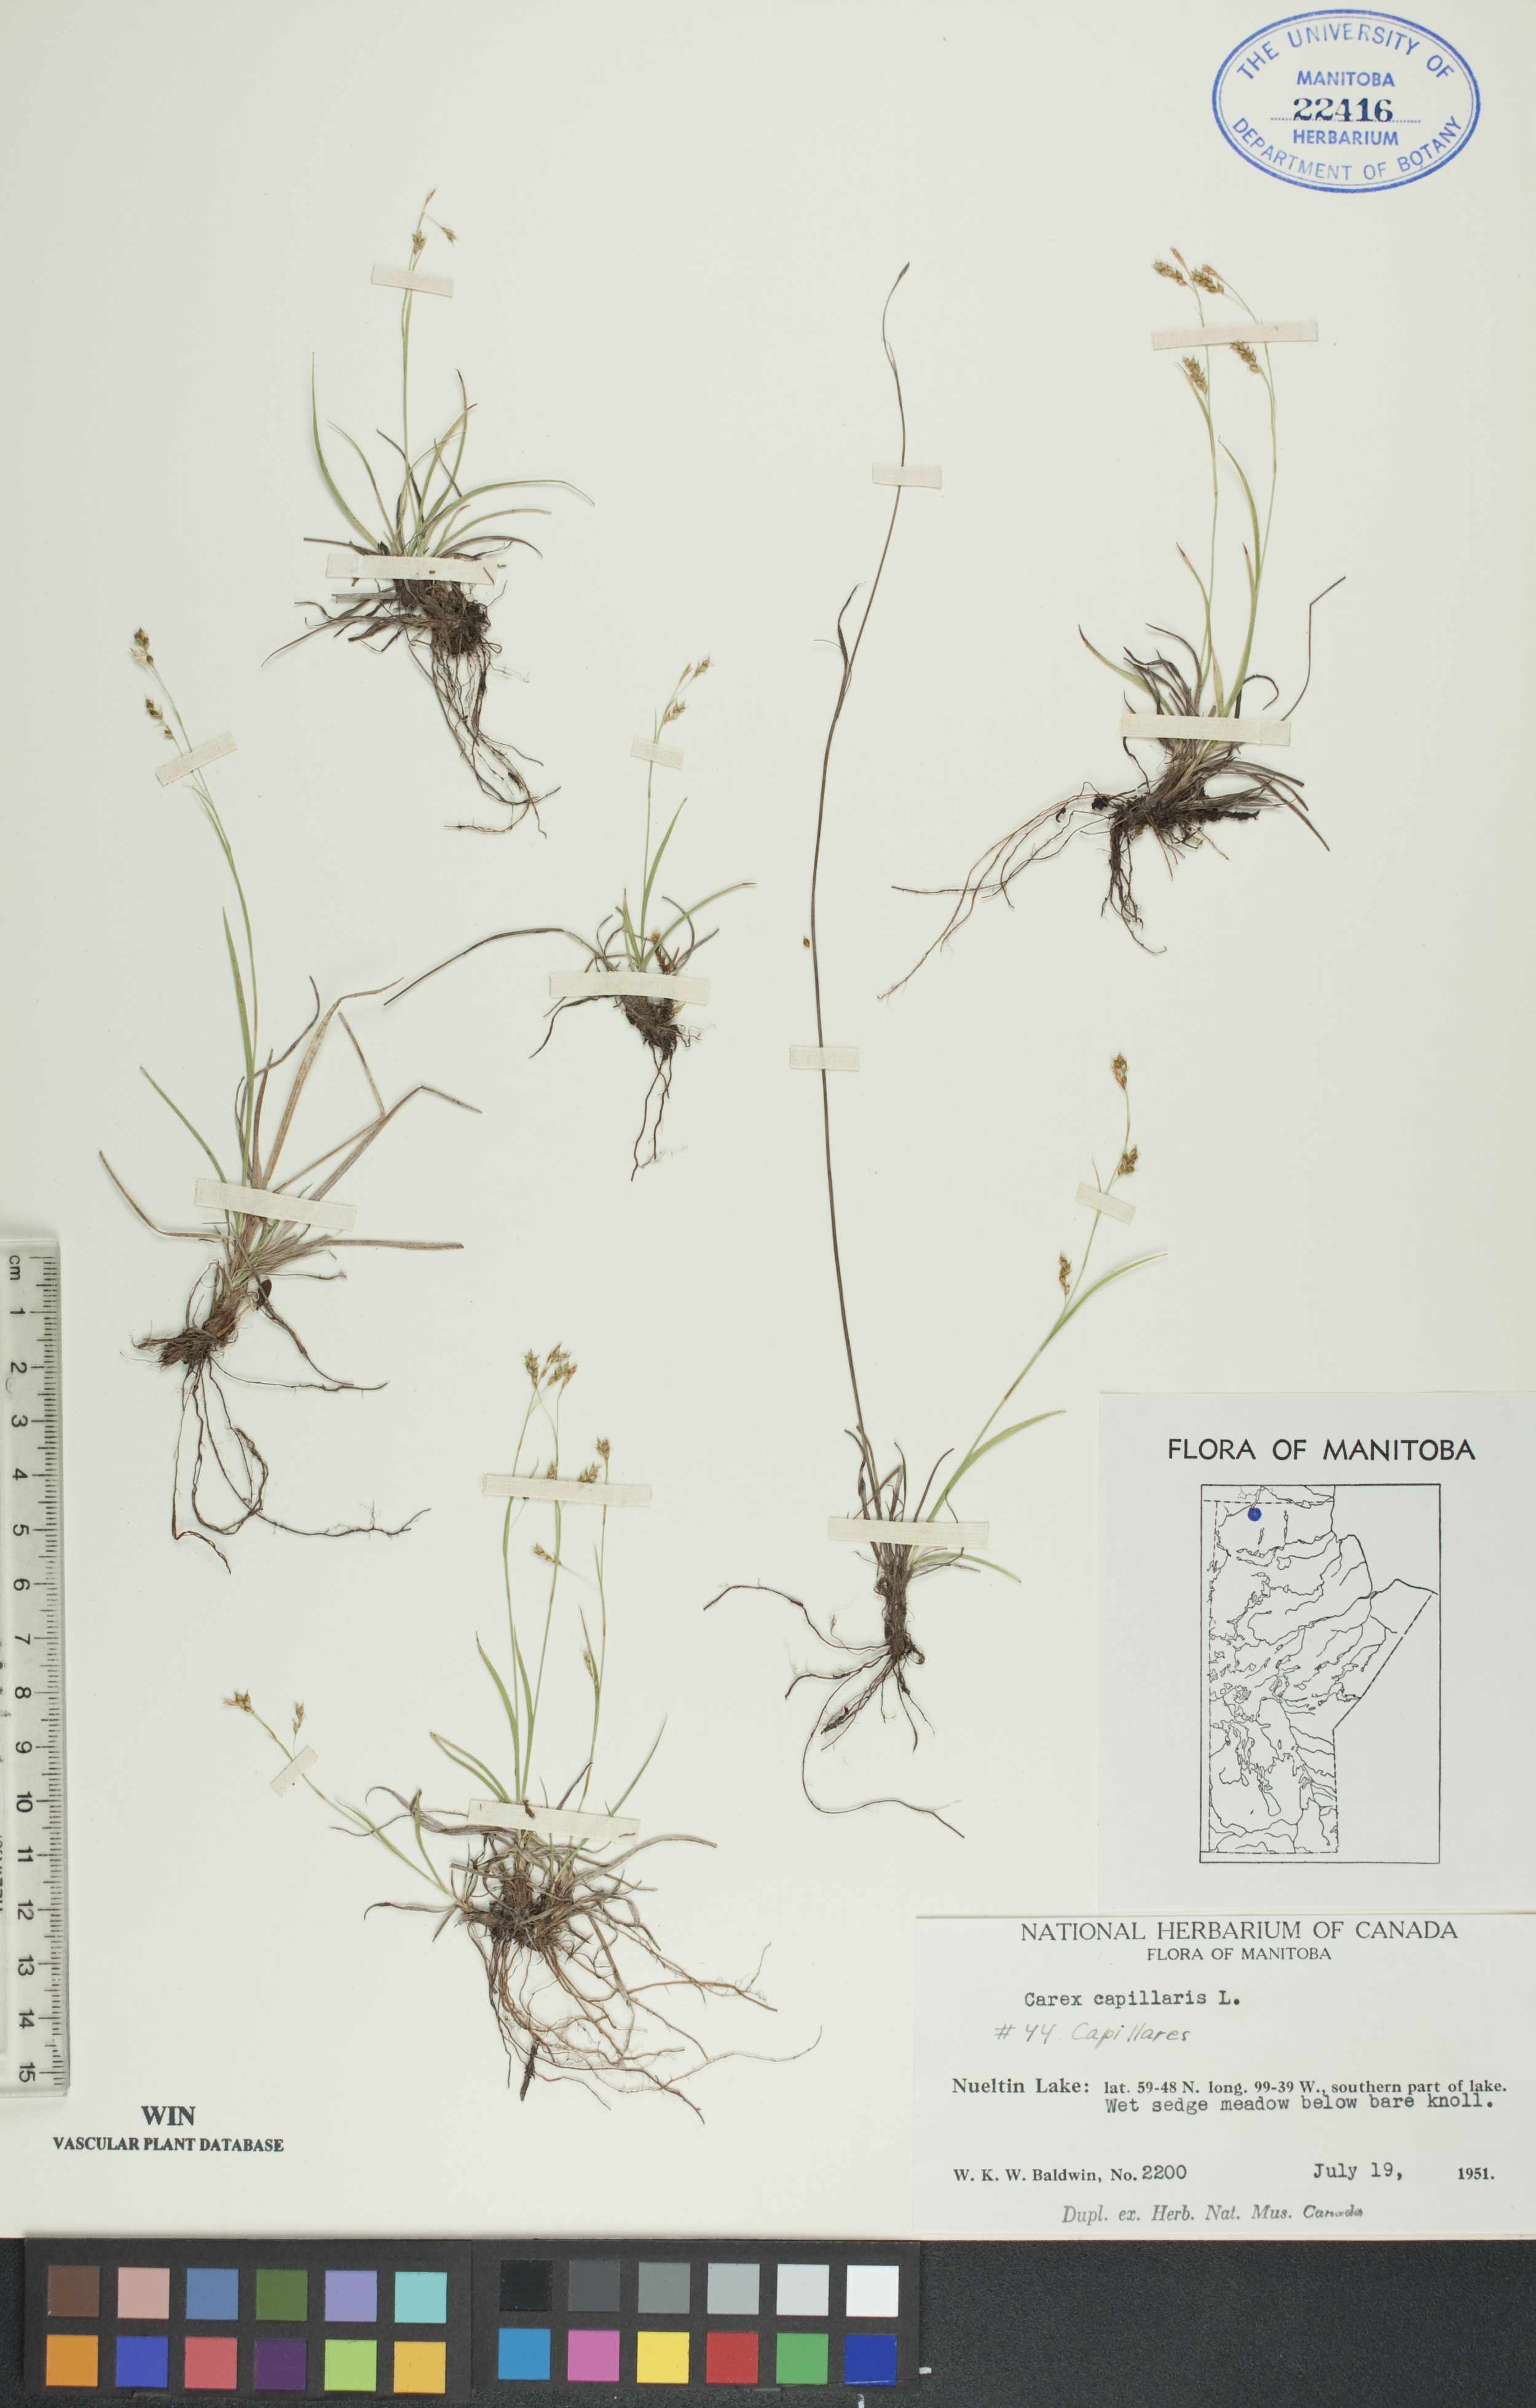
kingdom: Plantae
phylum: Tracheophyta
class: Liliopsida
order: Poales
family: Cyperaceae
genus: Carex
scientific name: Carex capillaris
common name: Hair sedge
